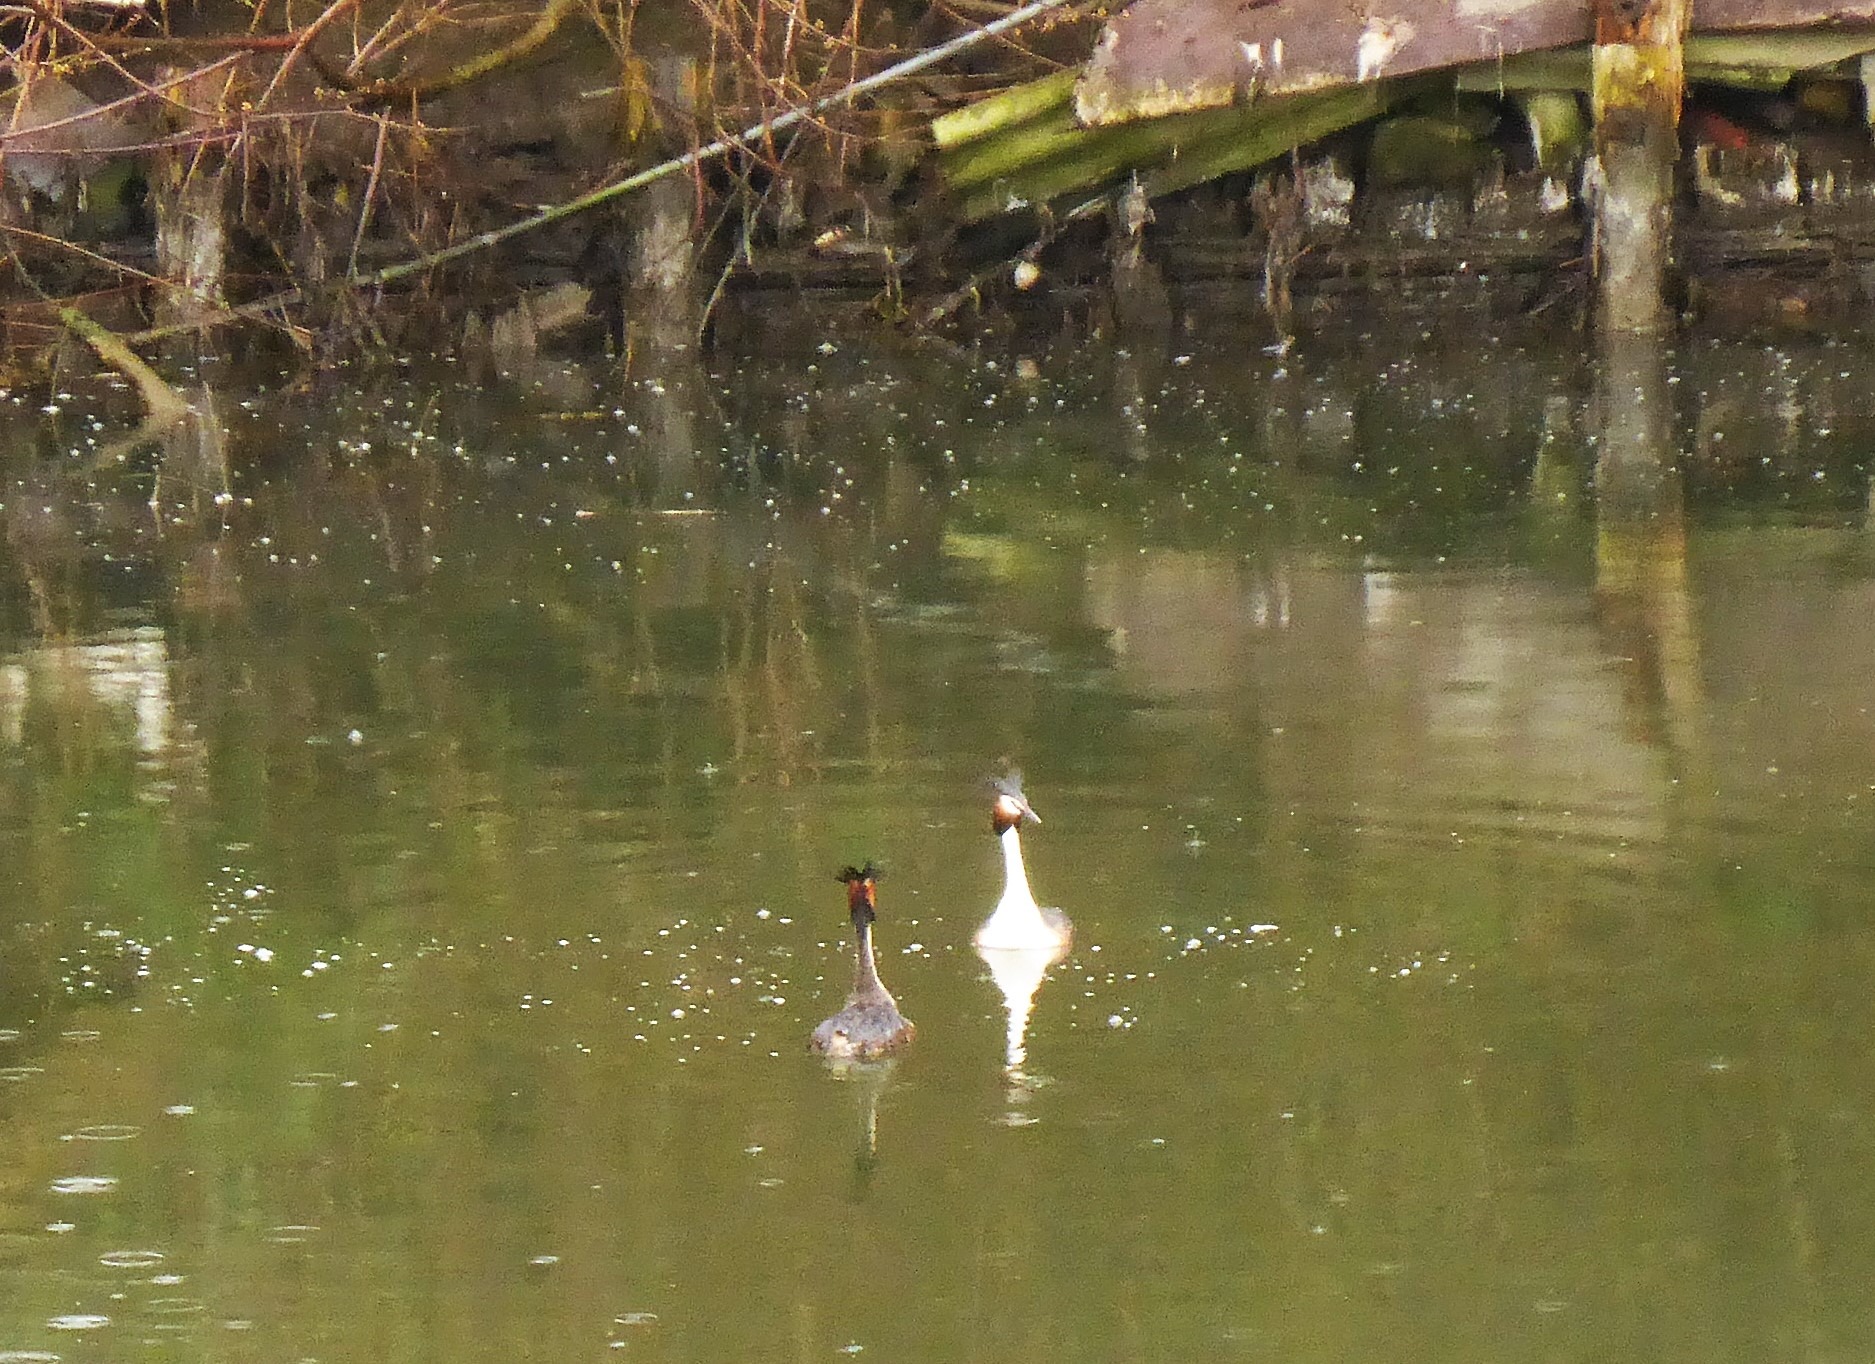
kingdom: Animalia
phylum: Chordata
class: Aves
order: Podicipediformes
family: Podicipedidae
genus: Podiceps
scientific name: Podiceps cristatus
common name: Toppet lappedykker
